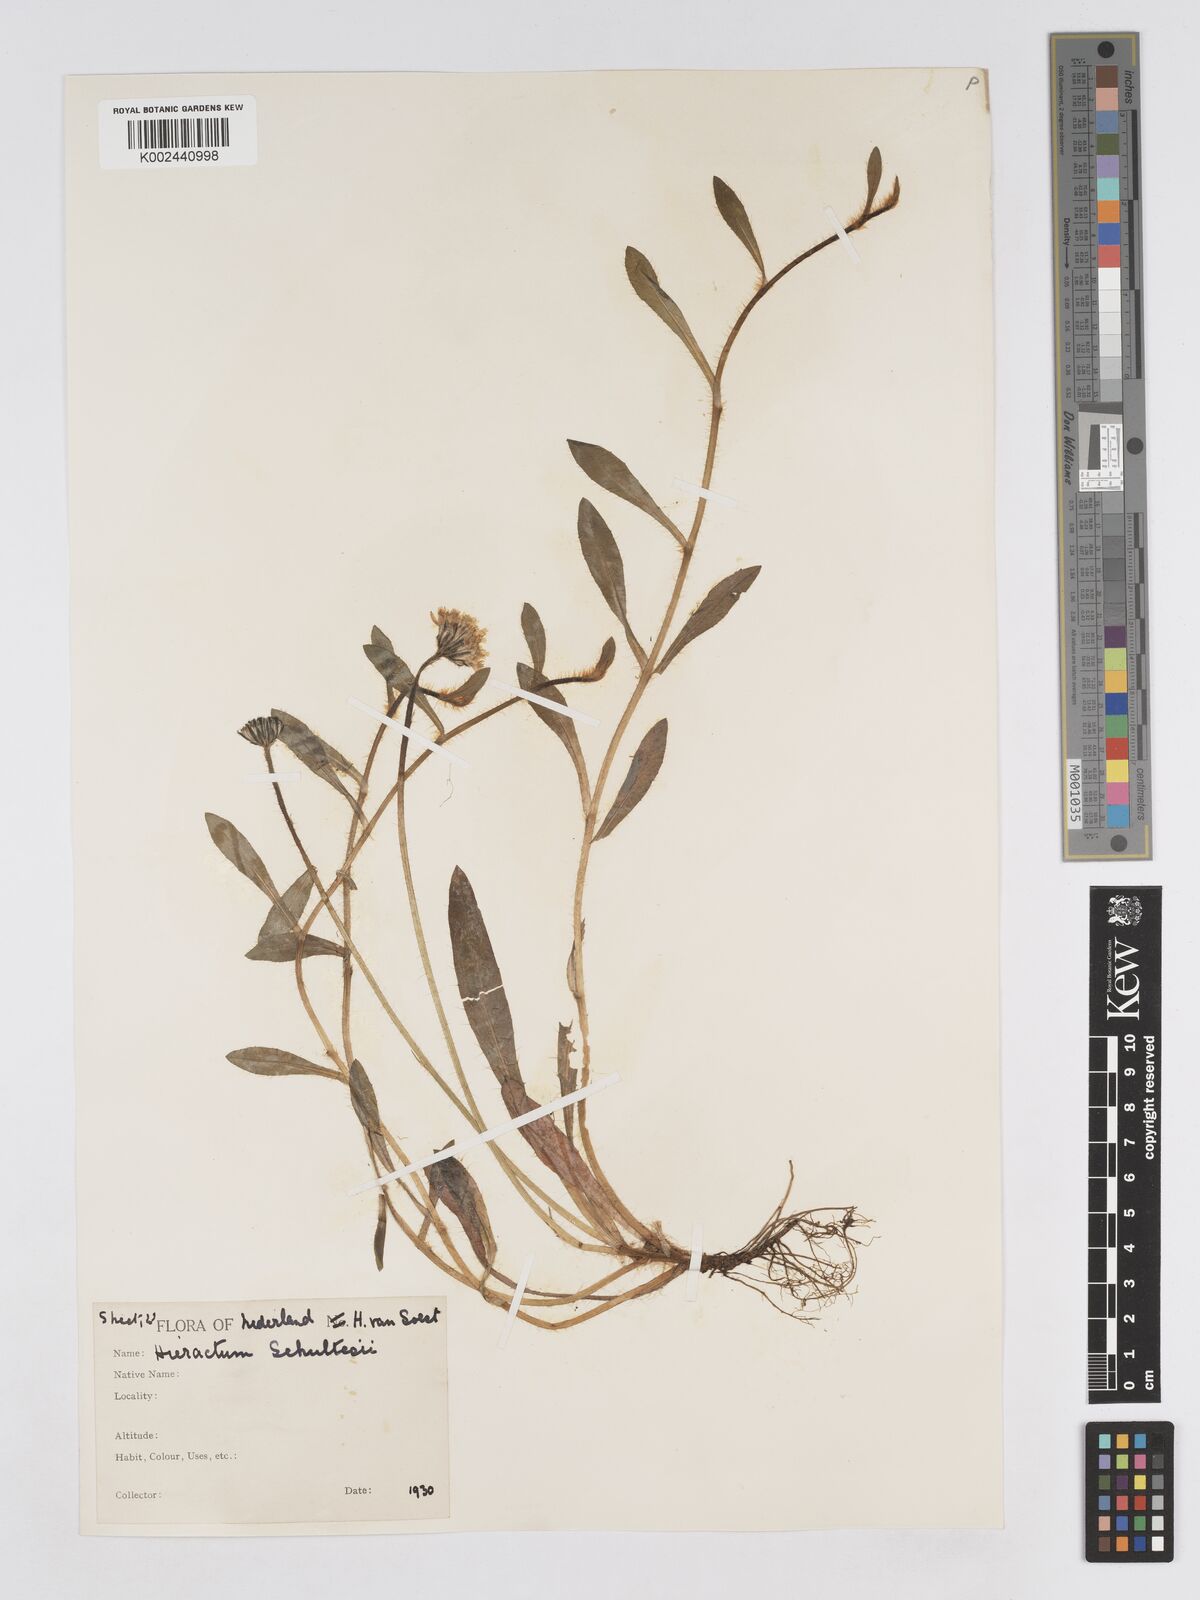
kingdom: Plantae
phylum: Tracheophyta
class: Magnoliopsida
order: Asterales
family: Asteraceae
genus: Pilosella
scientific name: Pilosella schultesii
